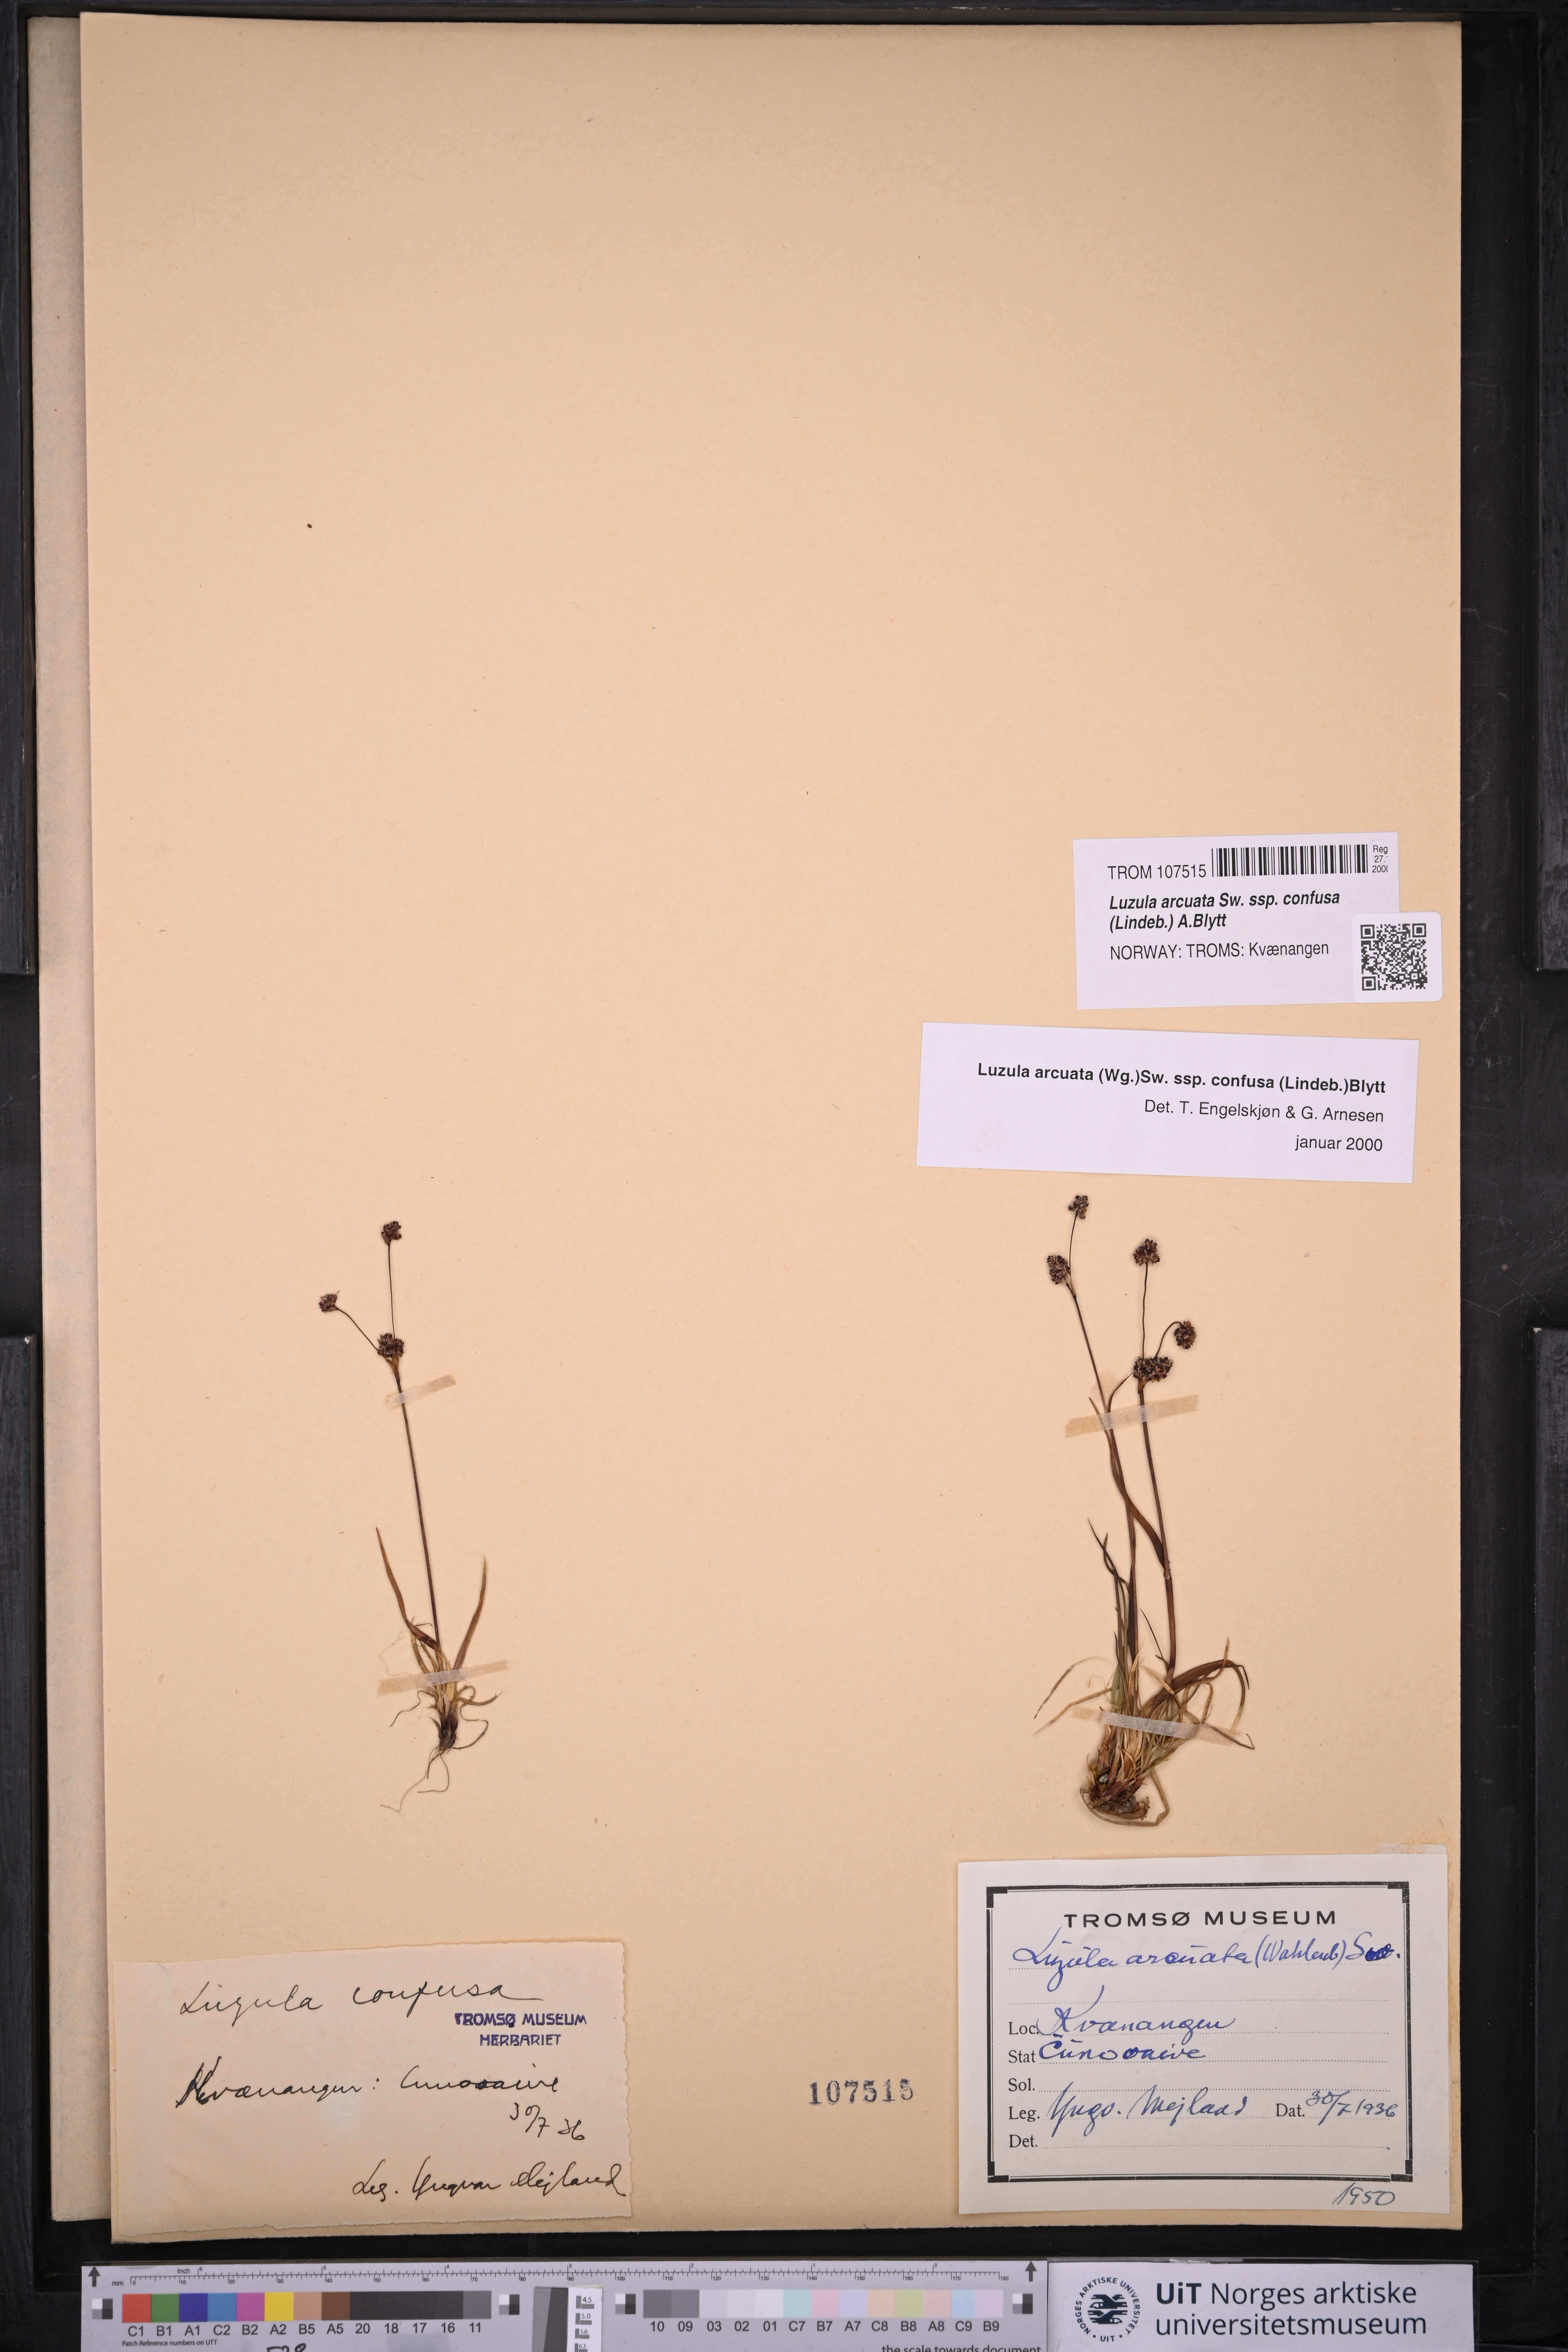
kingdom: Plantae
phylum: Tracheophyta
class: Liliopsida
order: Poales
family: Juncaceae
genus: Luzula
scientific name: Luzula confusa
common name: Northern wood rush
